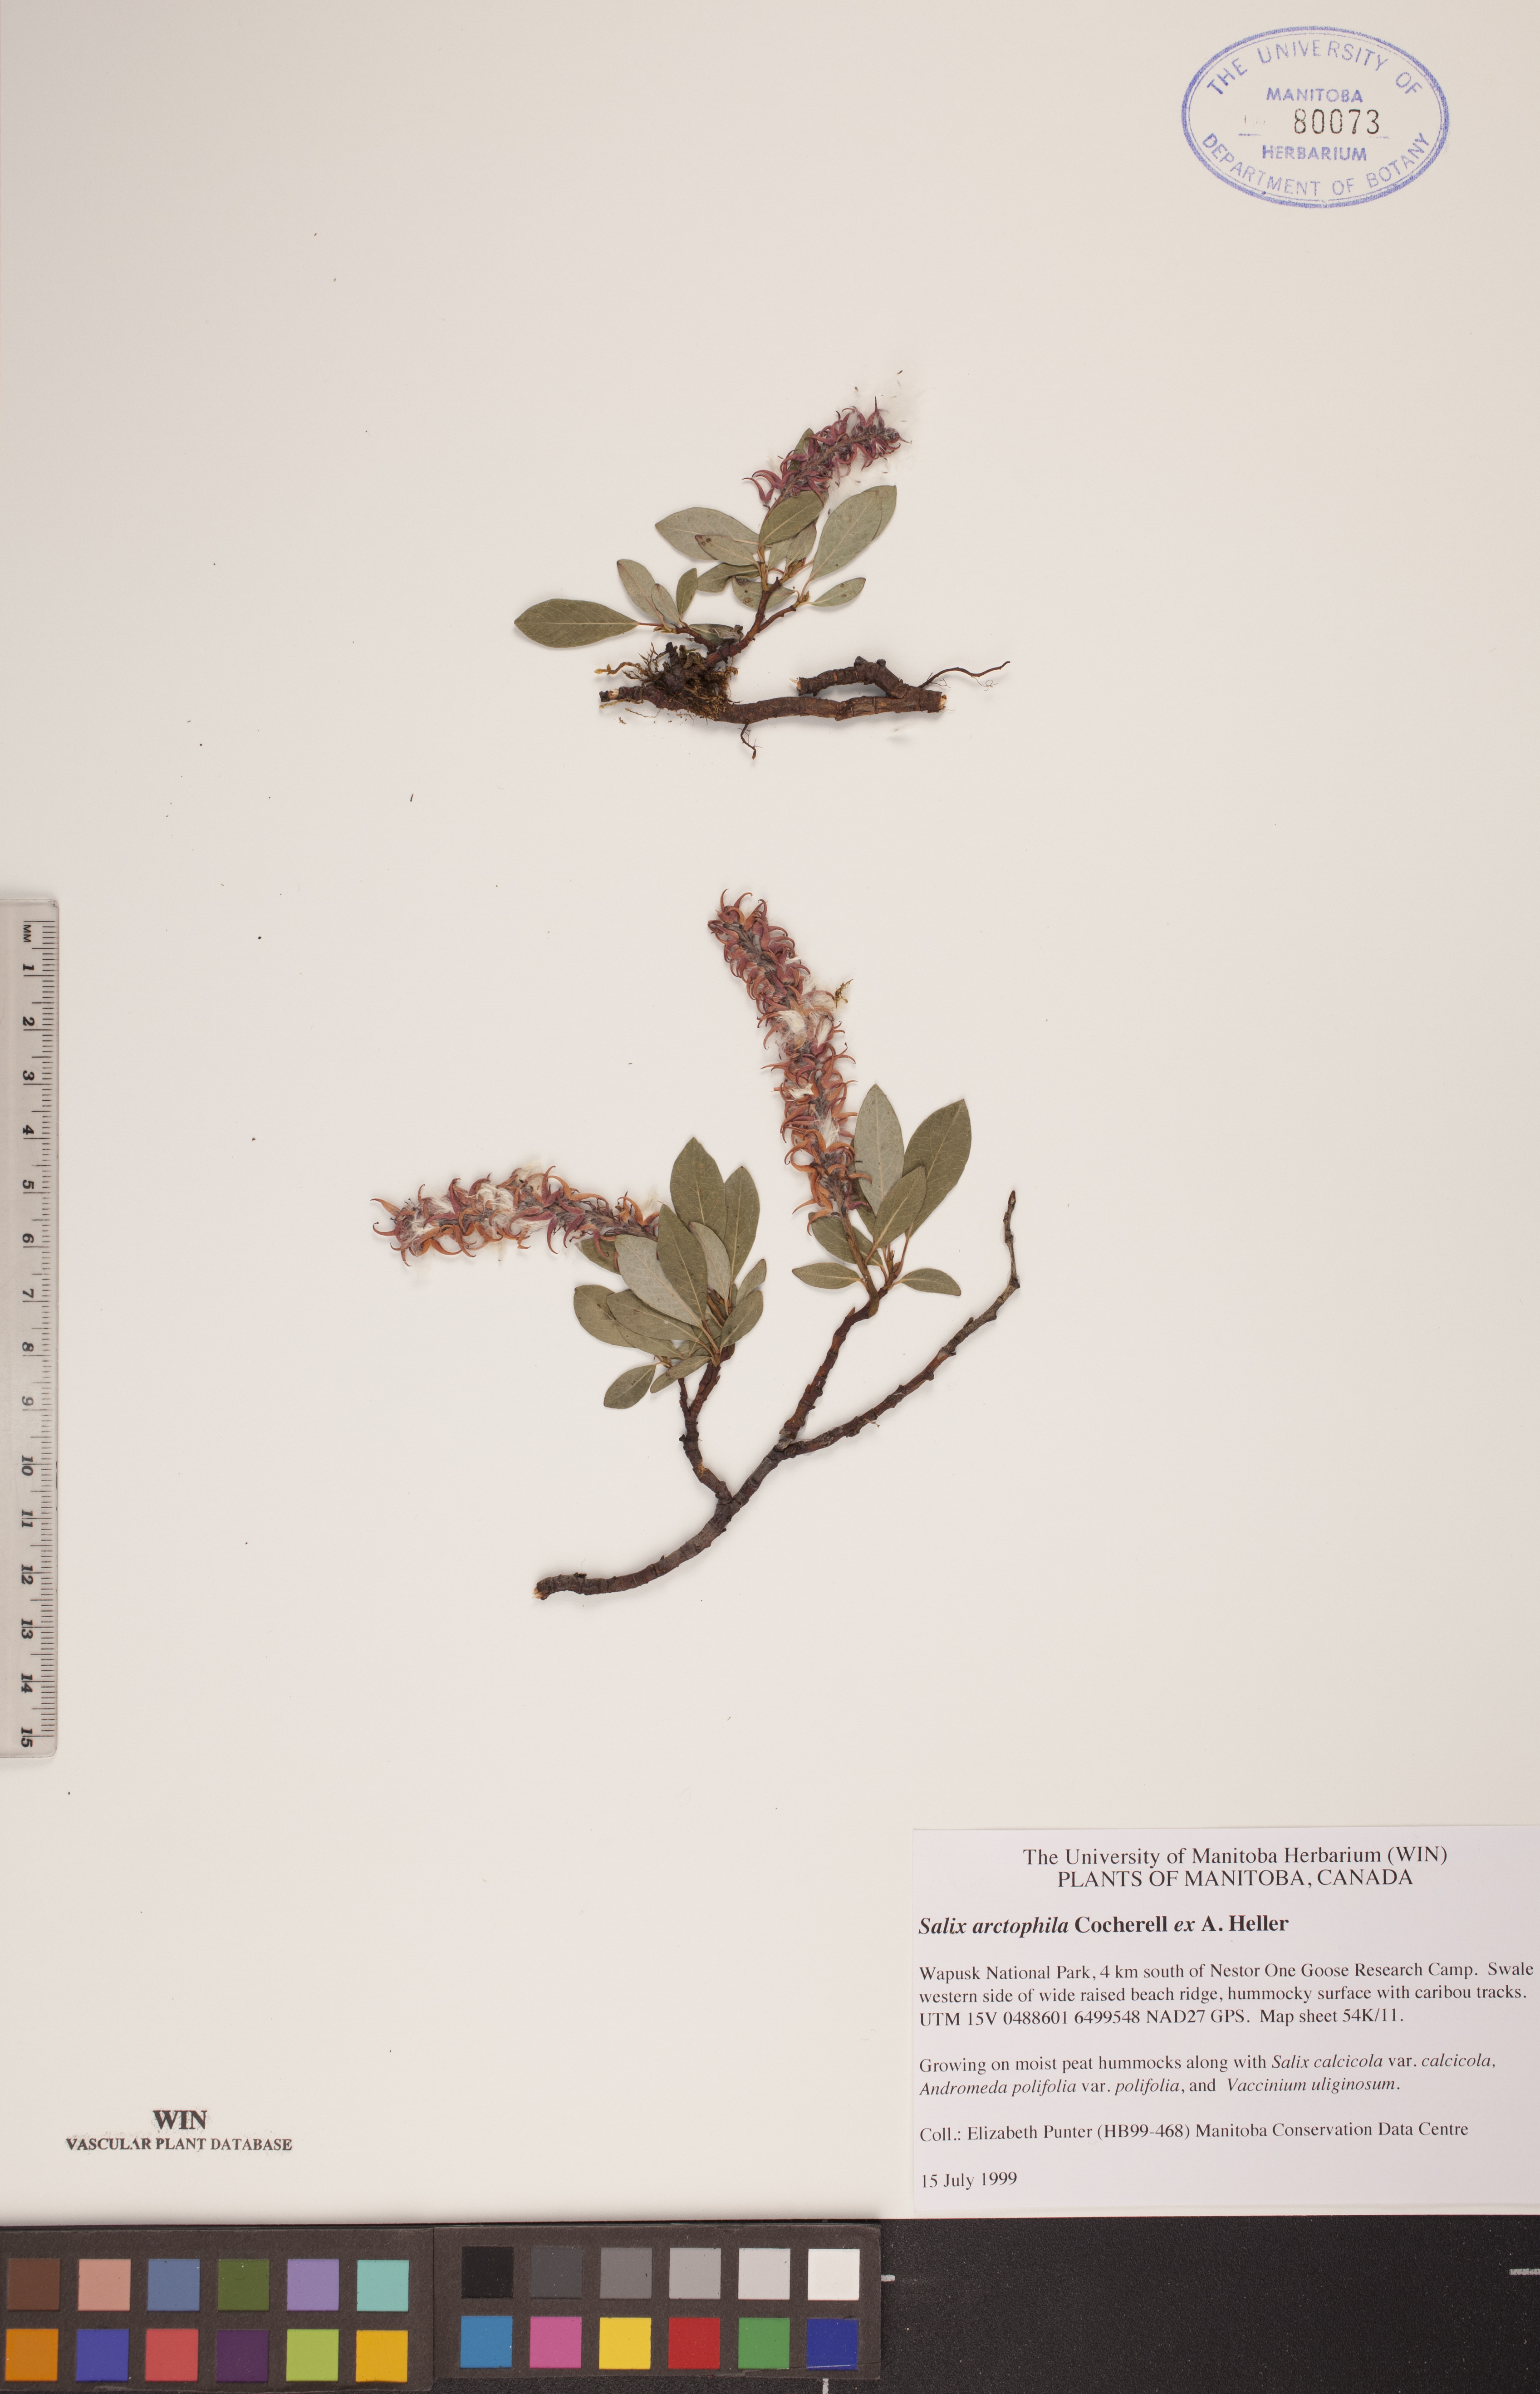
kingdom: Plantae
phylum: Tracheophyta
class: Magnoliopsida
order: Malpighiales
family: Salicaceae
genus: Salix
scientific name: Salix arctophila
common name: Greenland willow
